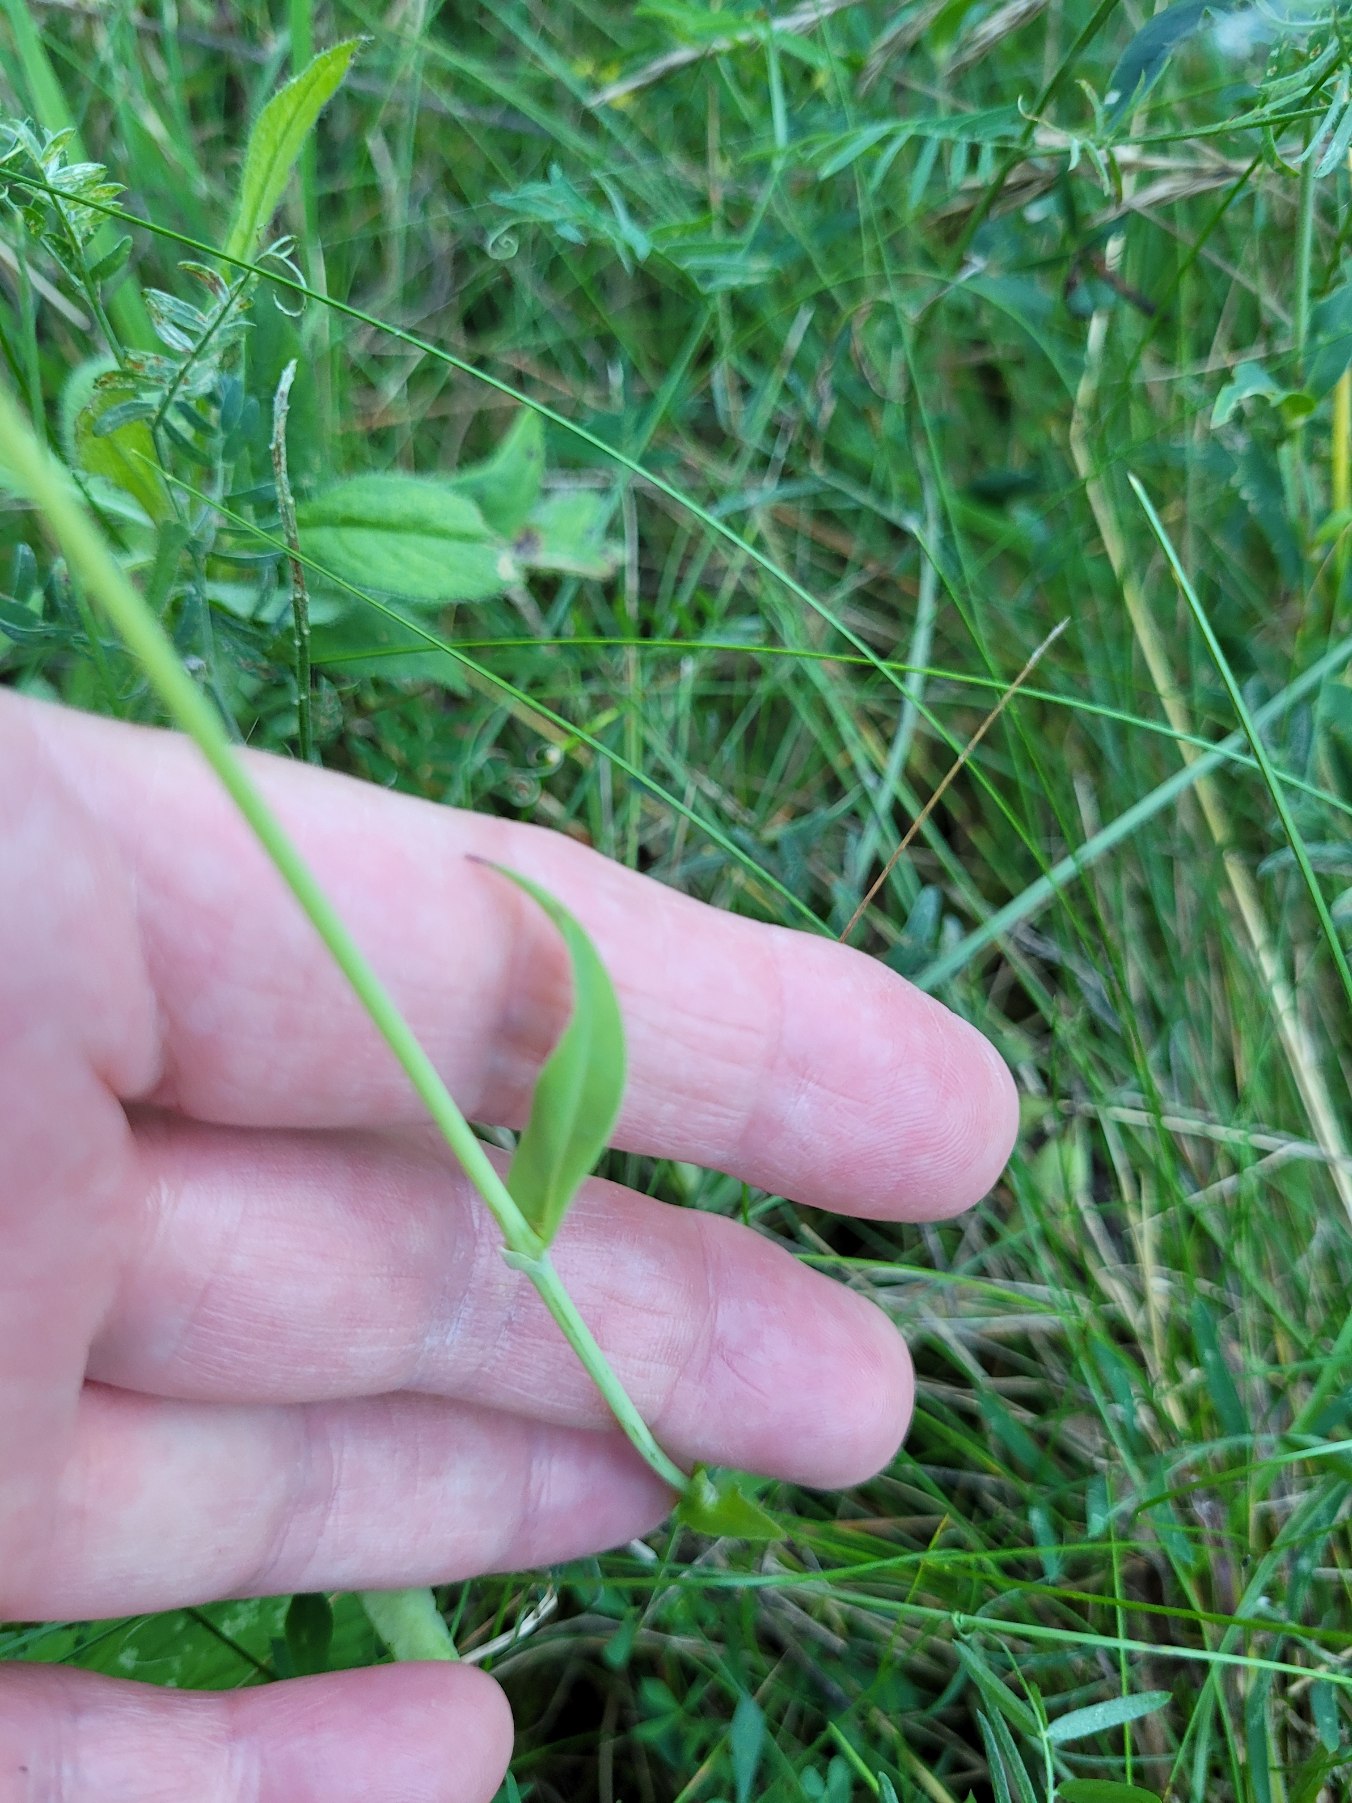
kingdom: Plantae
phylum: Tracheophyta
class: Magnoliopsida
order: Caryophyllales
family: Caryophyllaceae
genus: Silene
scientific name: Silene vulgaris
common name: Blæresmælde
